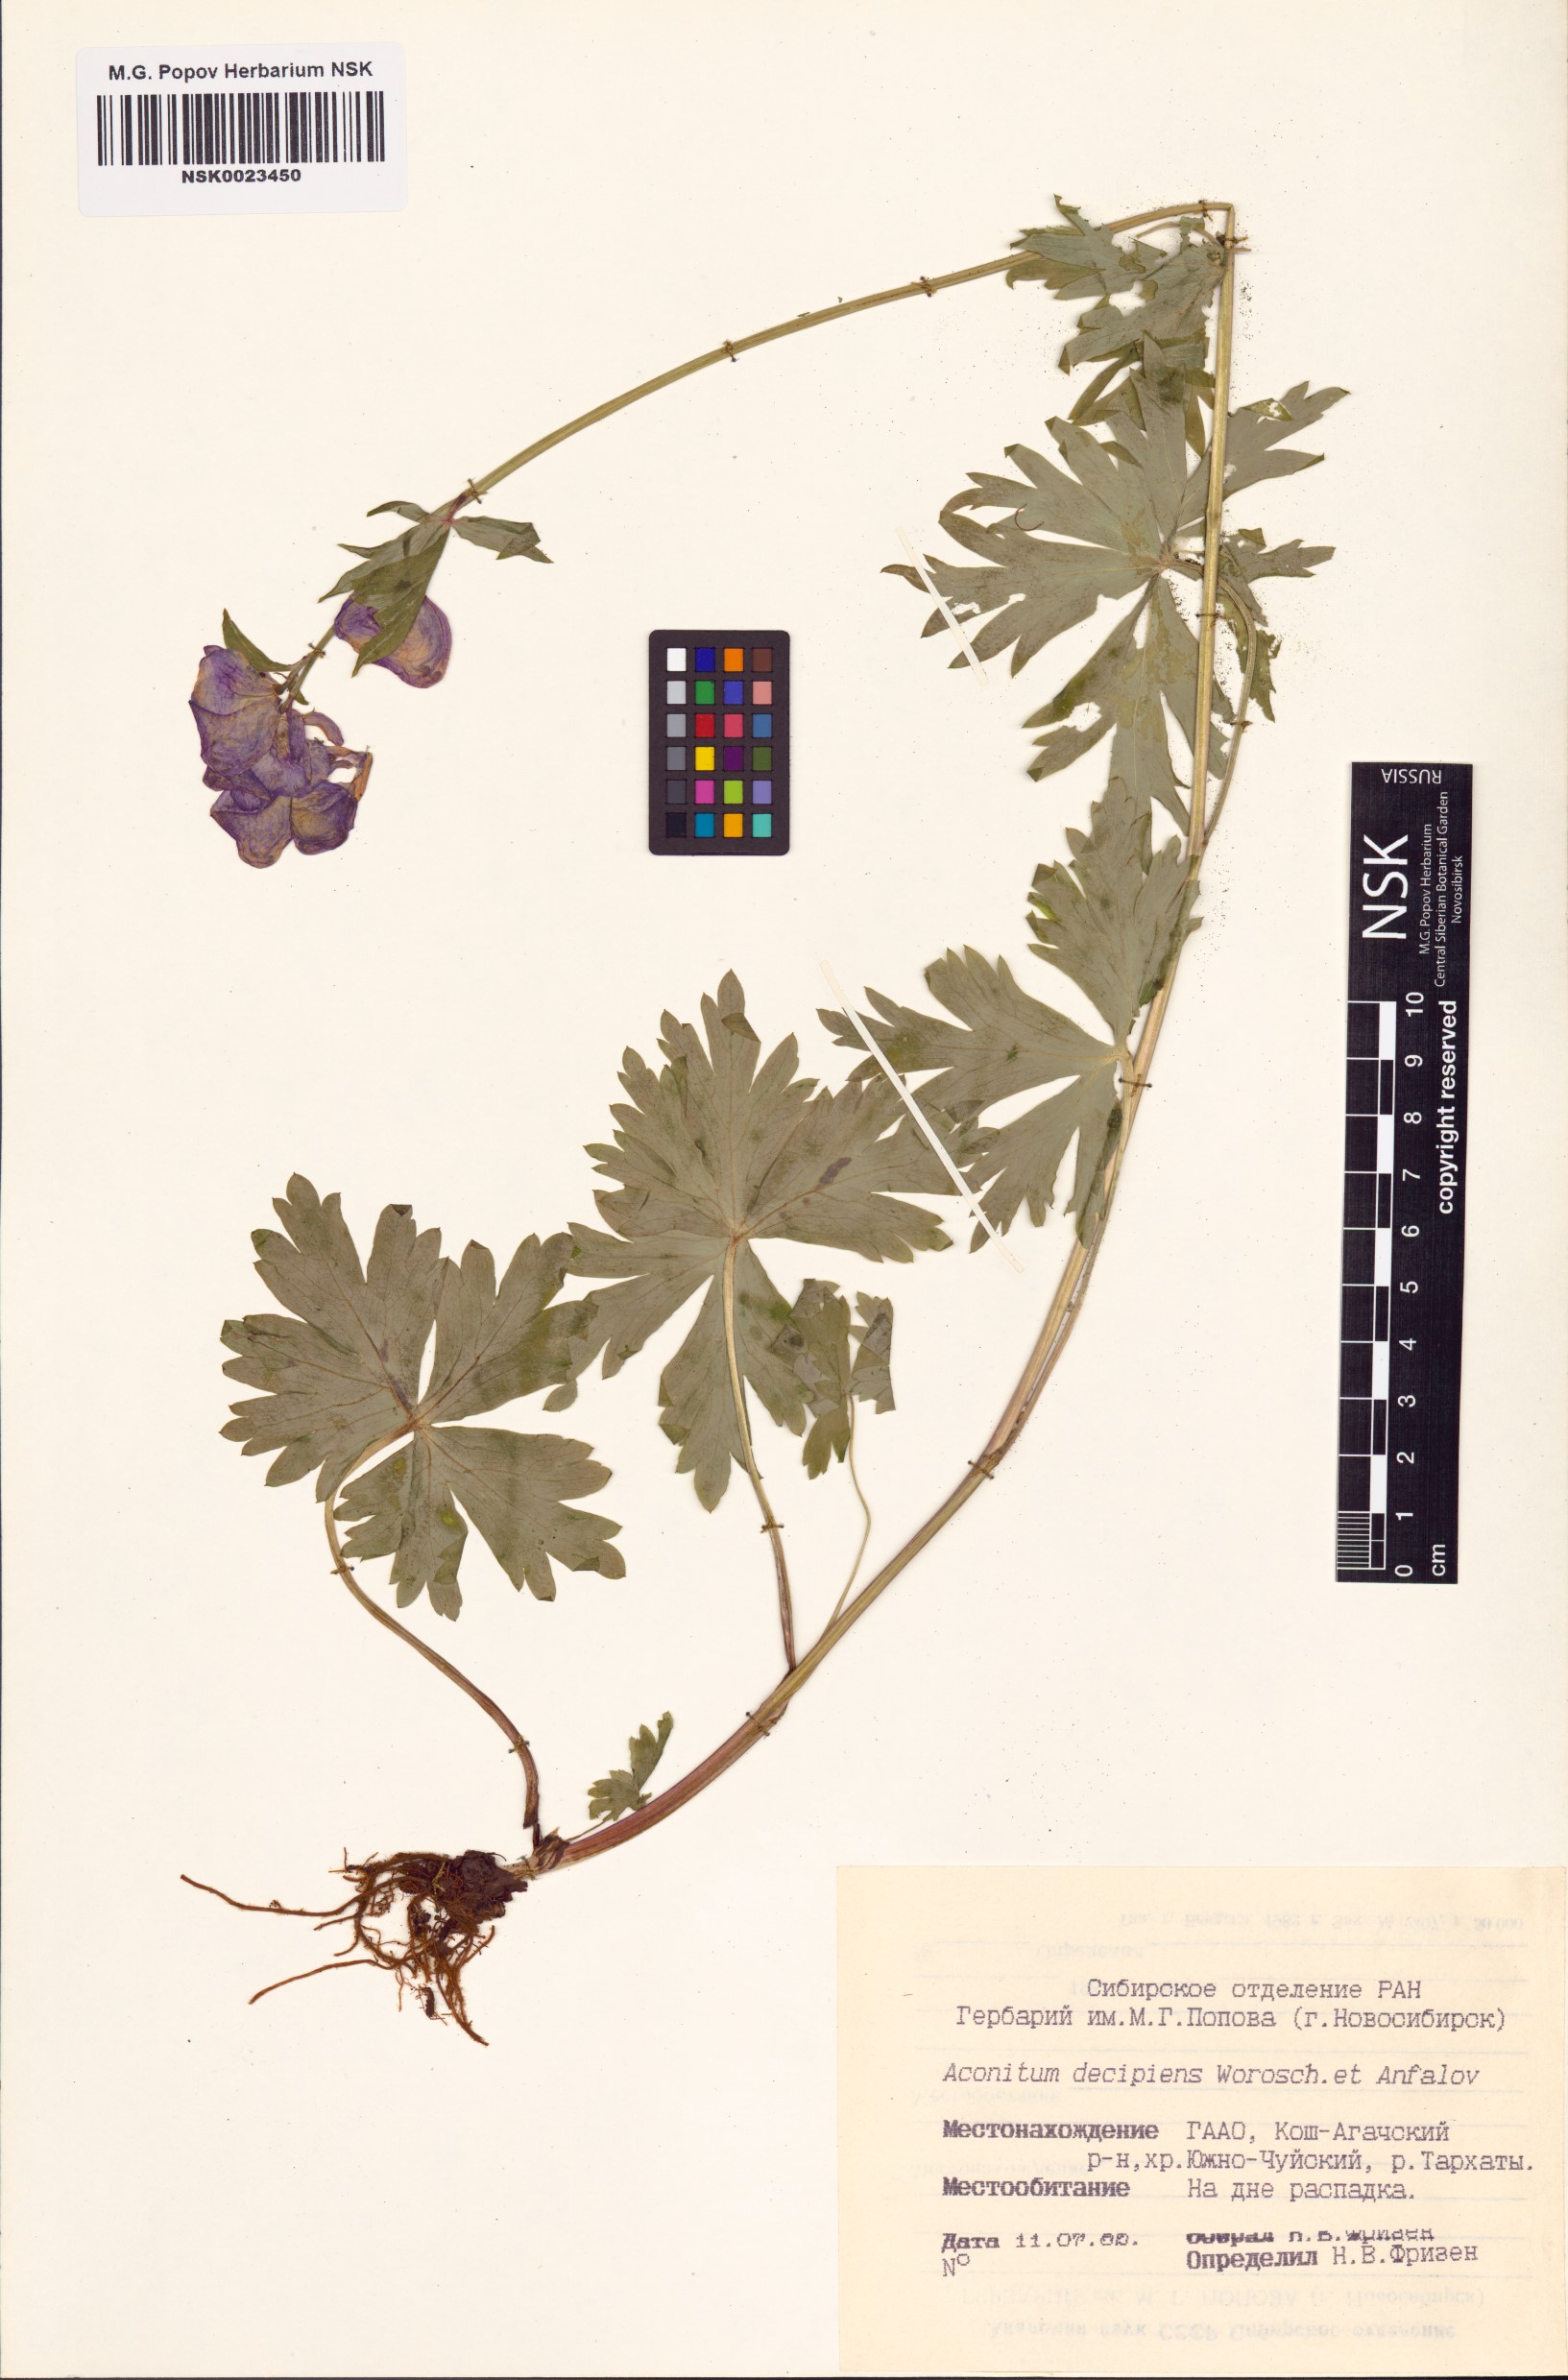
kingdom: Plantae
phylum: Tracheophyta
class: Magnoliopsida
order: Ranunculales
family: Ranunculaceae
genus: Aconitum
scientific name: Aconitum decipiens
